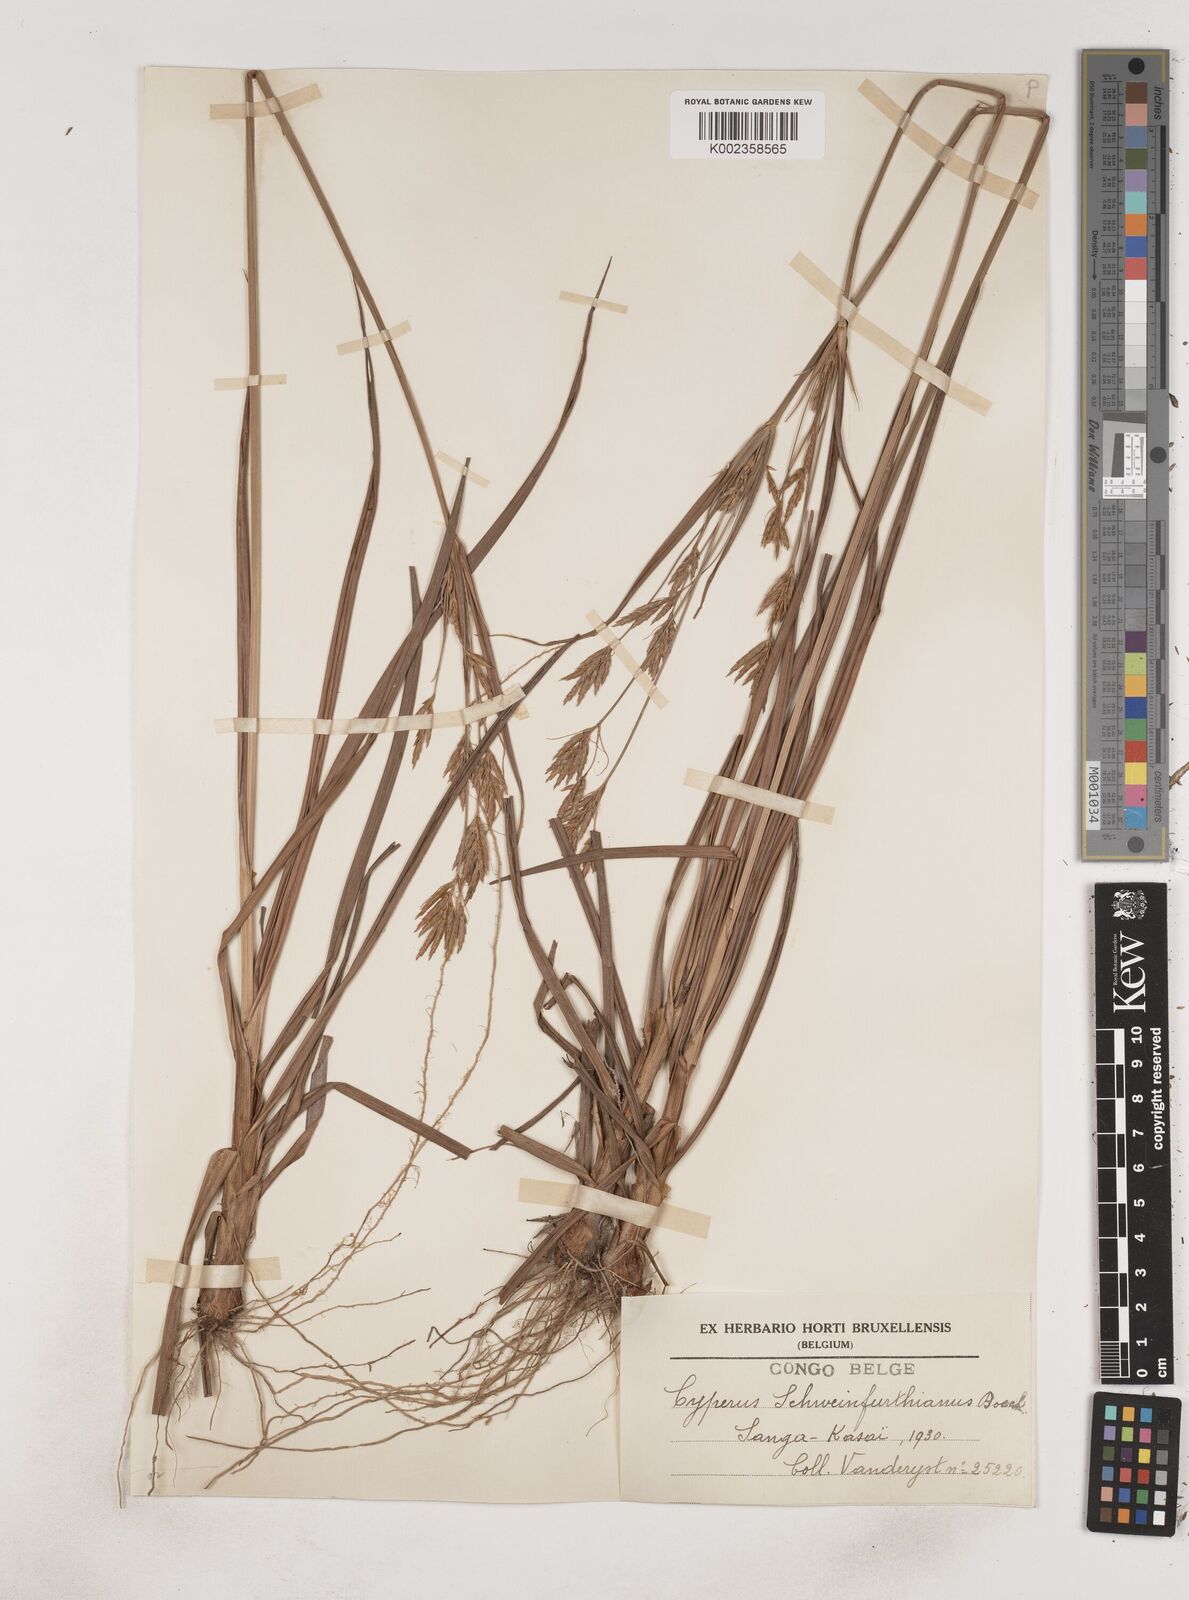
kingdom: Plantae
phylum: Tracheophyta
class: Liliopsida
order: Poales
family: Cyperaceae
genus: Cyperus
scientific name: Cyperus tenuiculmis
